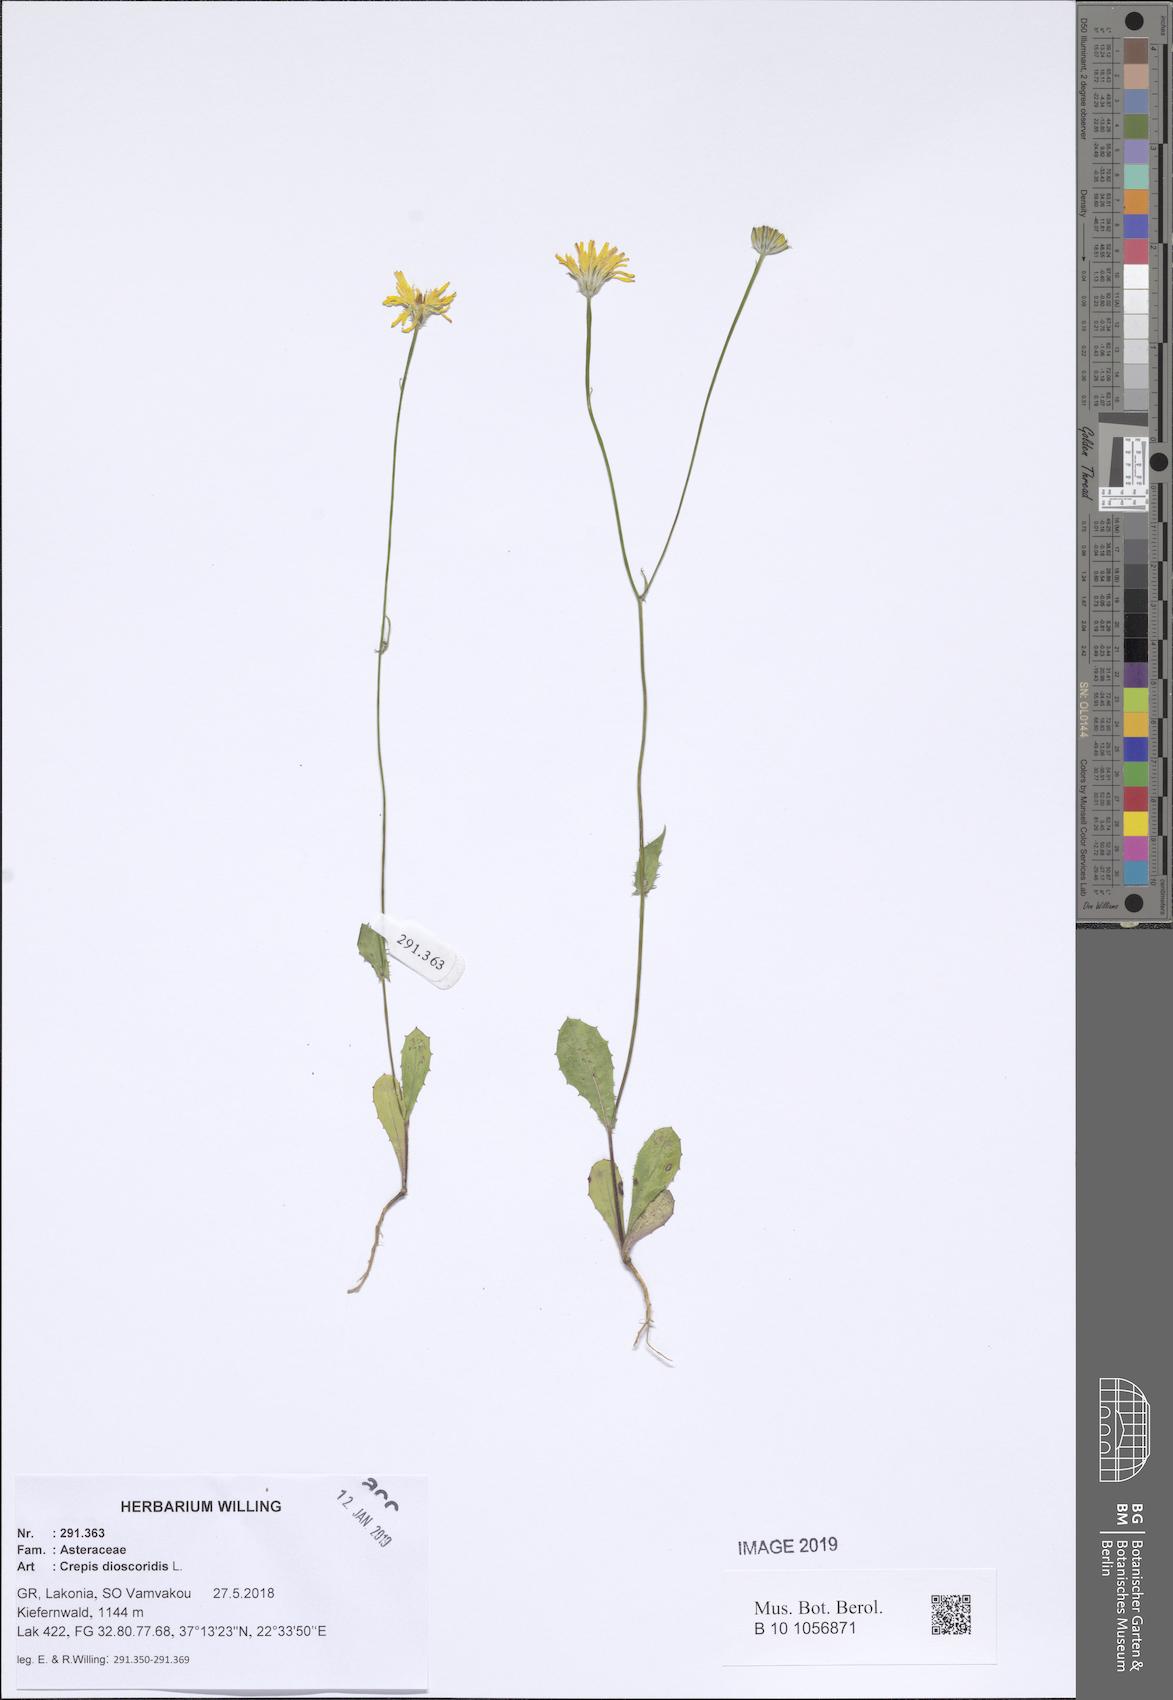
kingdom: Plantae
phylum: Tracheophyta
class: Magnoliopsida
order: Asterales
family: Asteraceae
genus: Crepis
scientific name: Crepis dioscoridis
